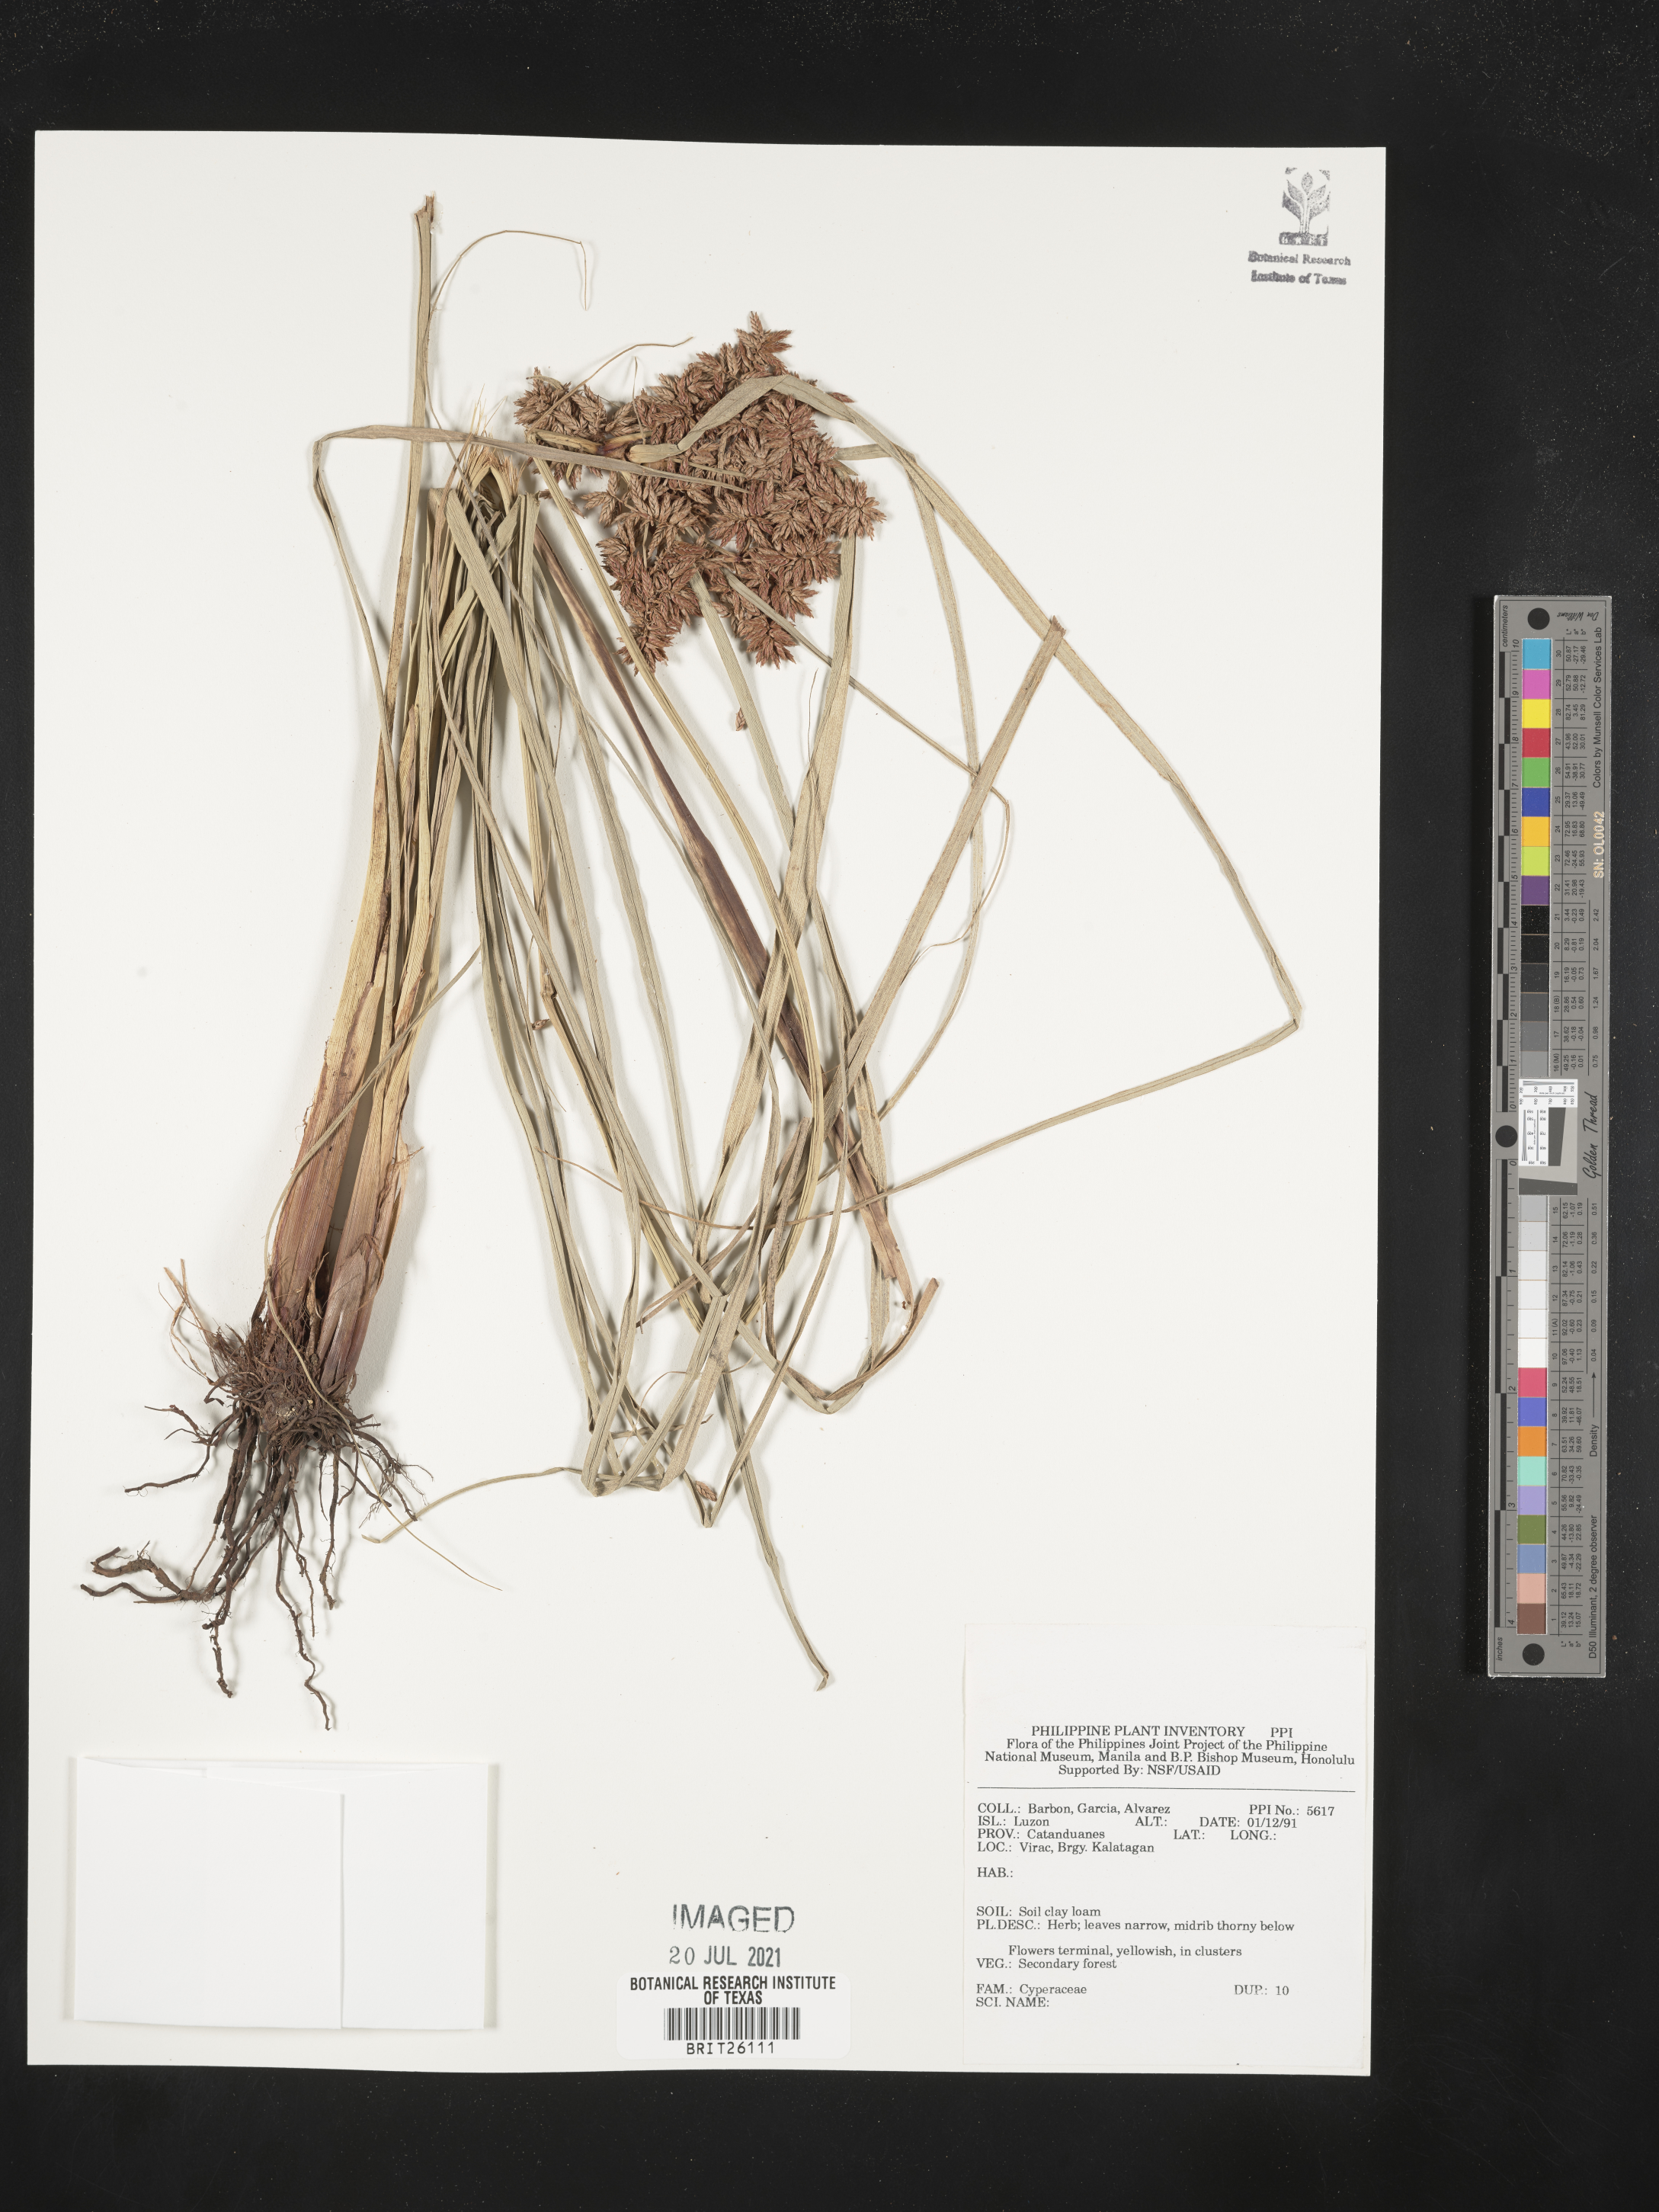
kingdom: Plantae
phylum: Tracheophyta
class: Liliopsida
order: Poales
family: Cyperaceae
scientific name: Cyperaceae
